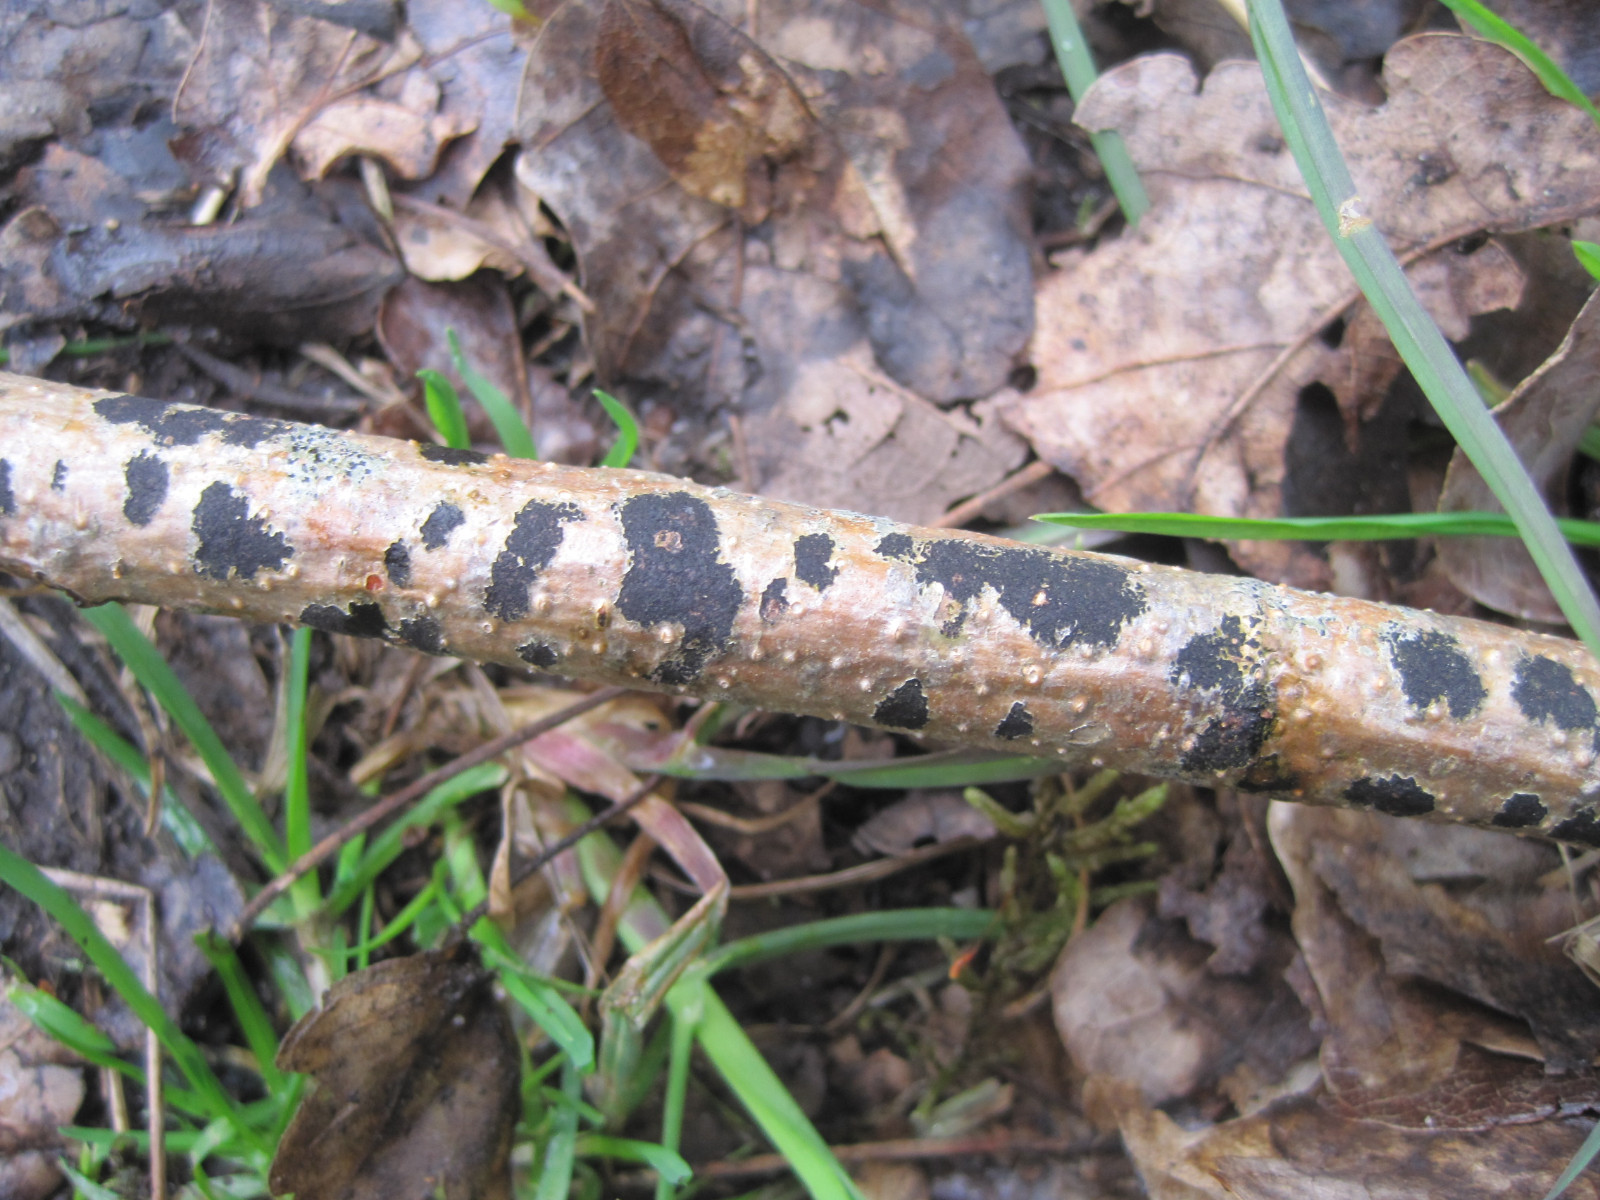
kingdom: Fungi
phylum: Ascomycota
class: Leotiomycetes
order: Rhytismatales
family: Ascodichaenaceae
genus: Ascodichaena
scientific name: Ascodichaena rugosa
